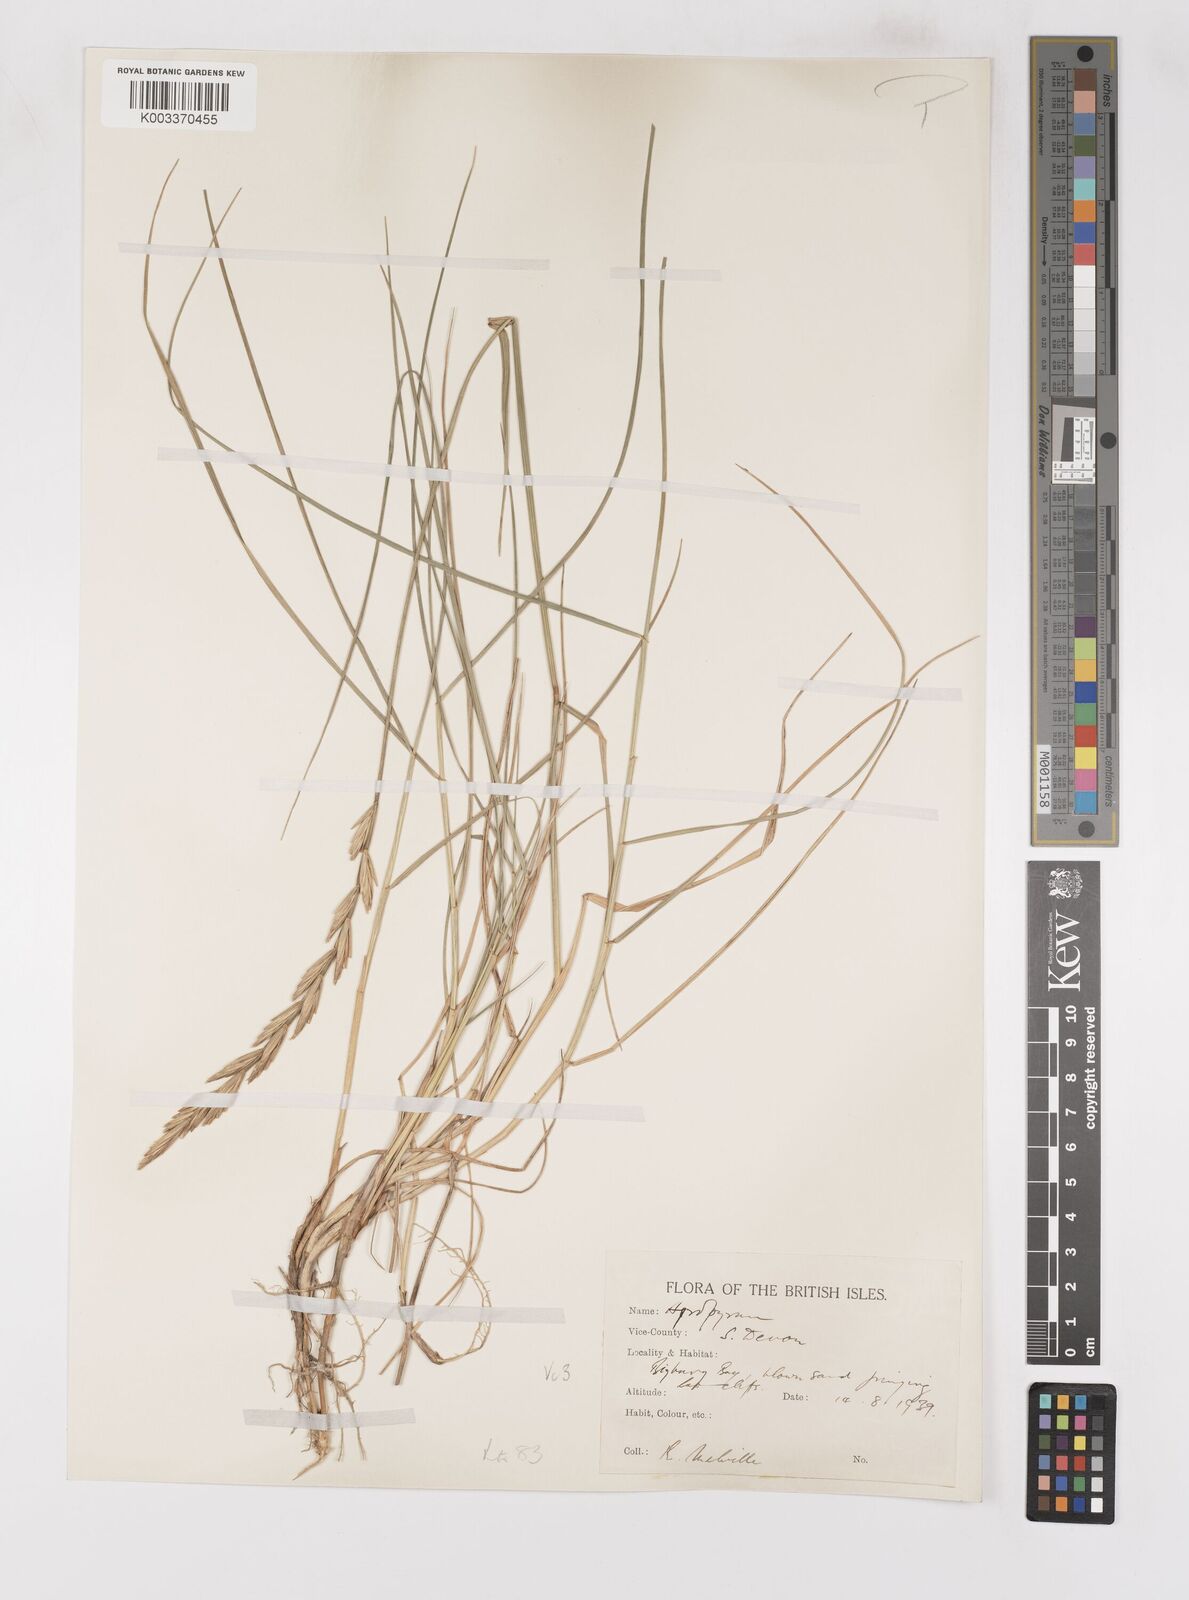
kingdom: Plantae
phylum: Tracheophyta
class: Liliopsida
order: Poales
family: Poaceae
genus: Thinoelymus
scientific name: Thinoelymus obtusiusculus
